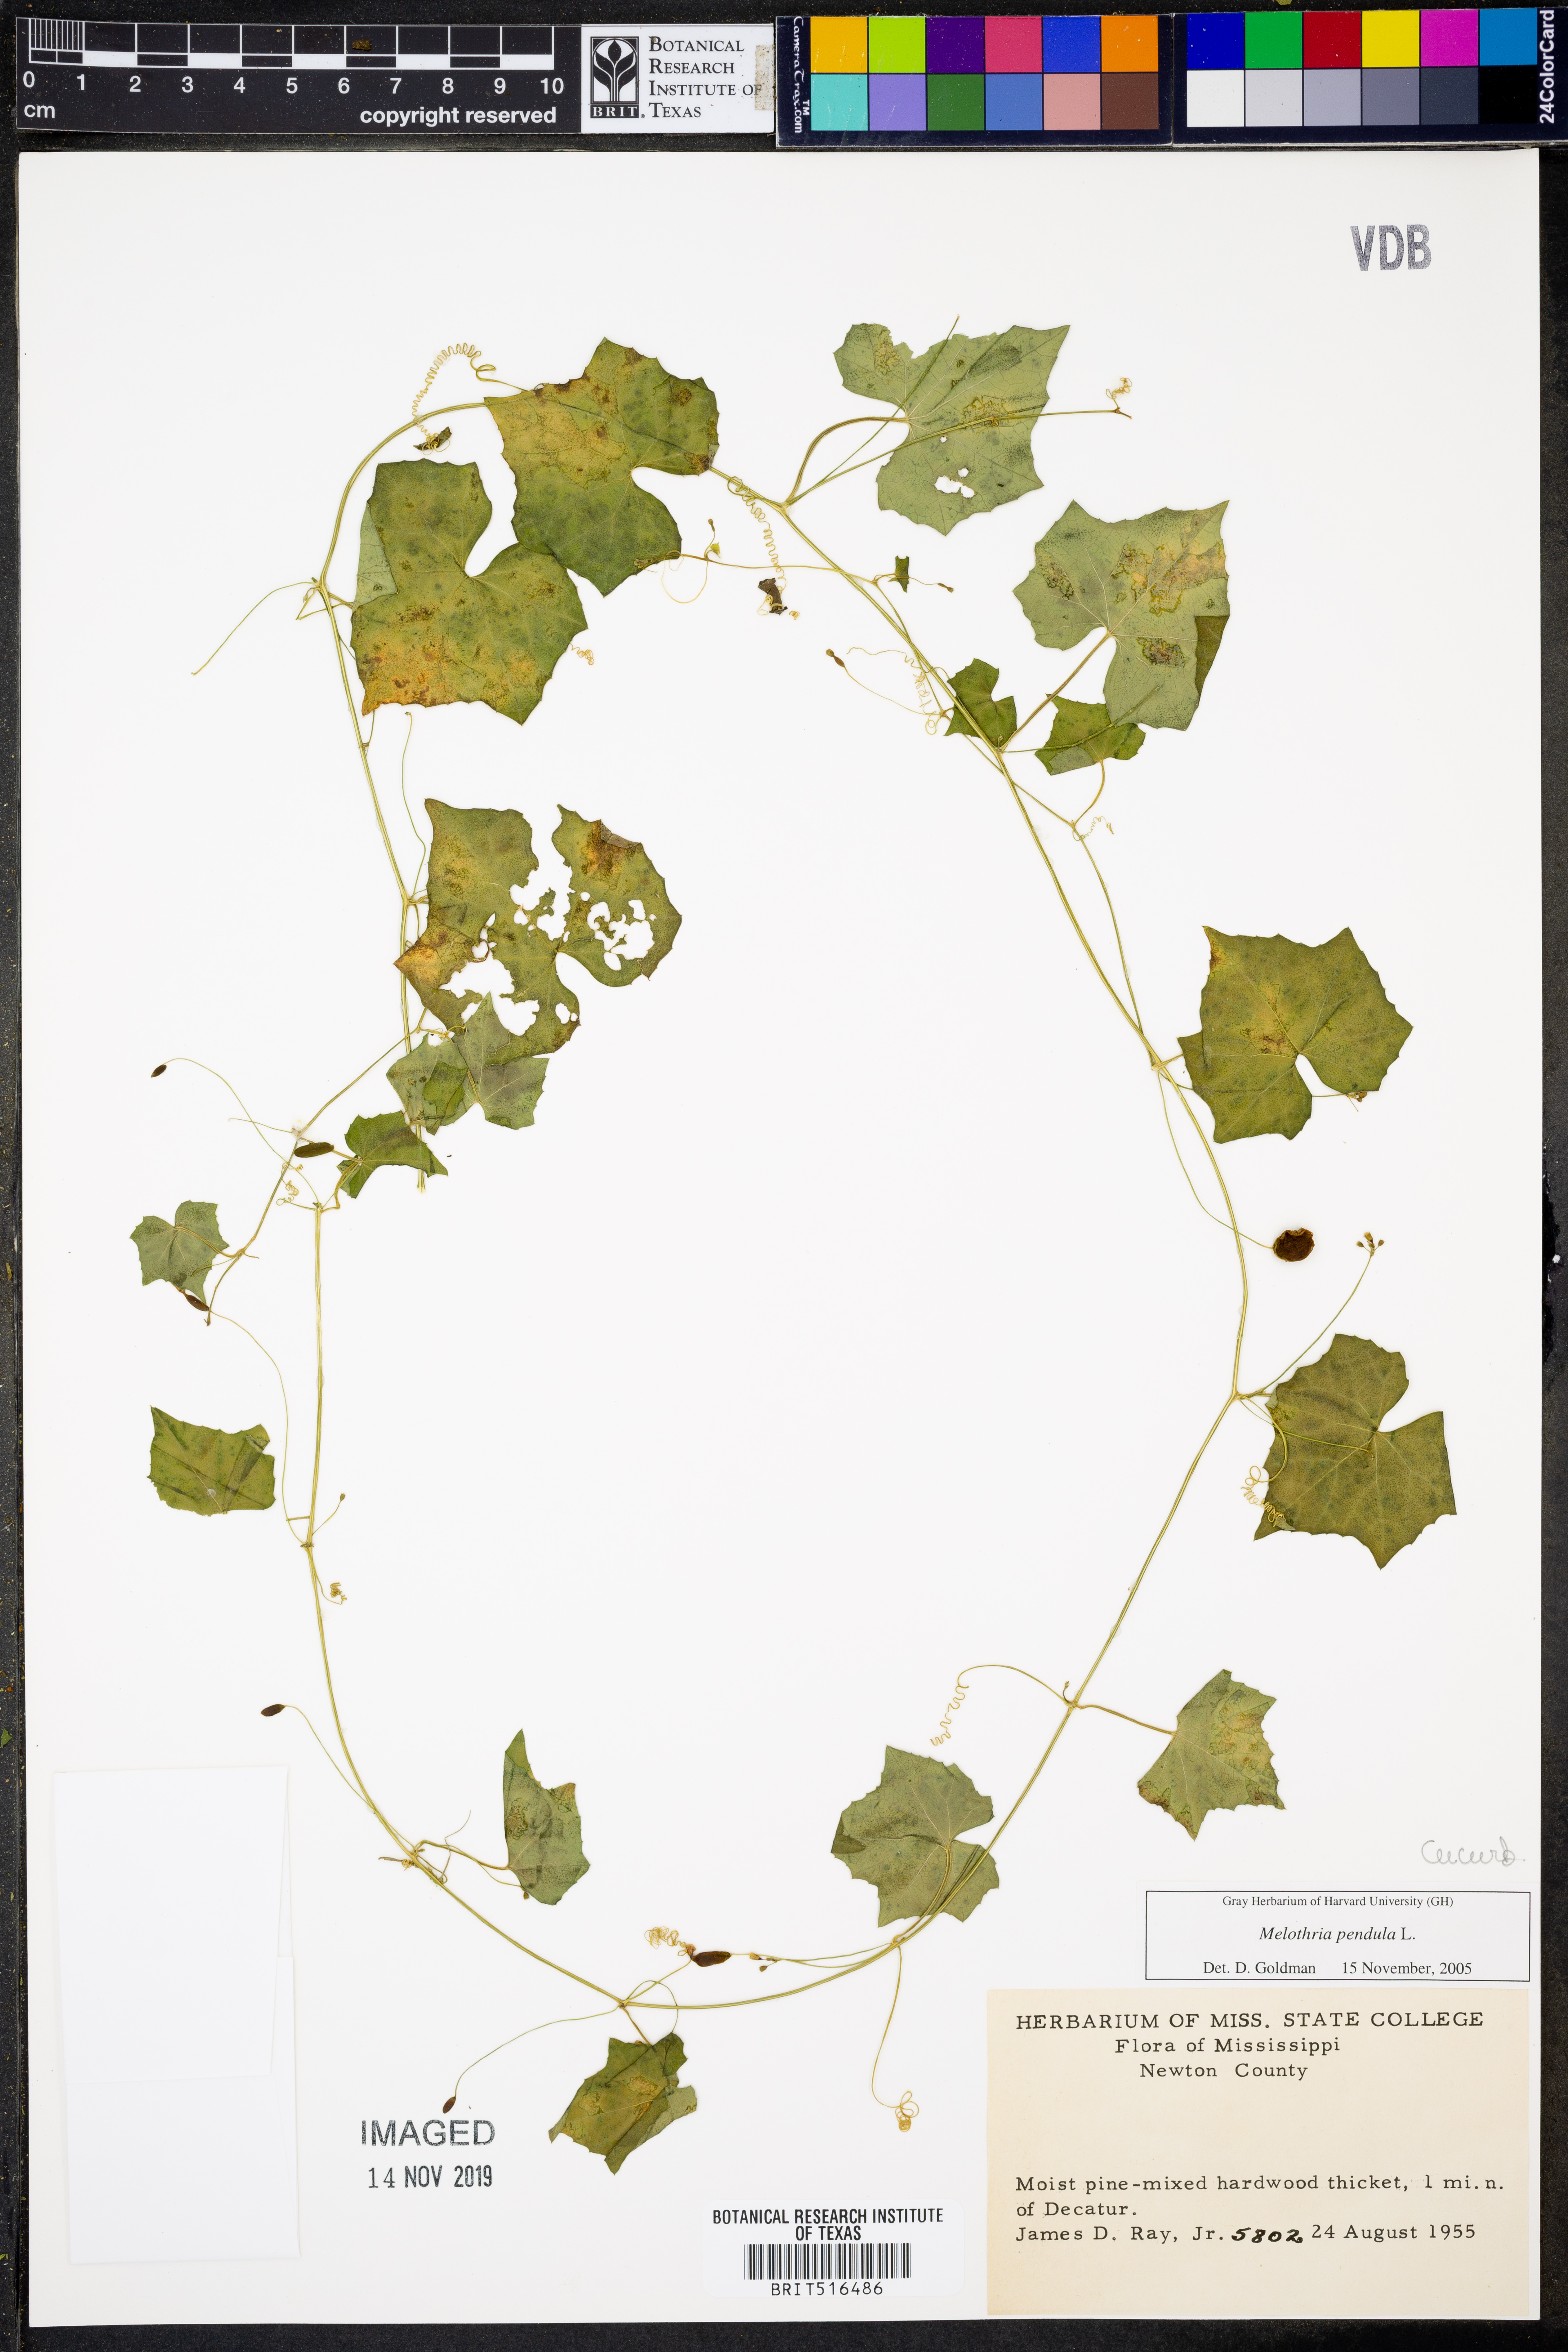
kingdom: Plantae
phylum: Tracheophyta
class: Magnoliopsida
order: Cucurbitales
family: Cucurbitaceae
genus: Melothria
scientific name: Melothria pendula
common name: Creeping-cucumber
